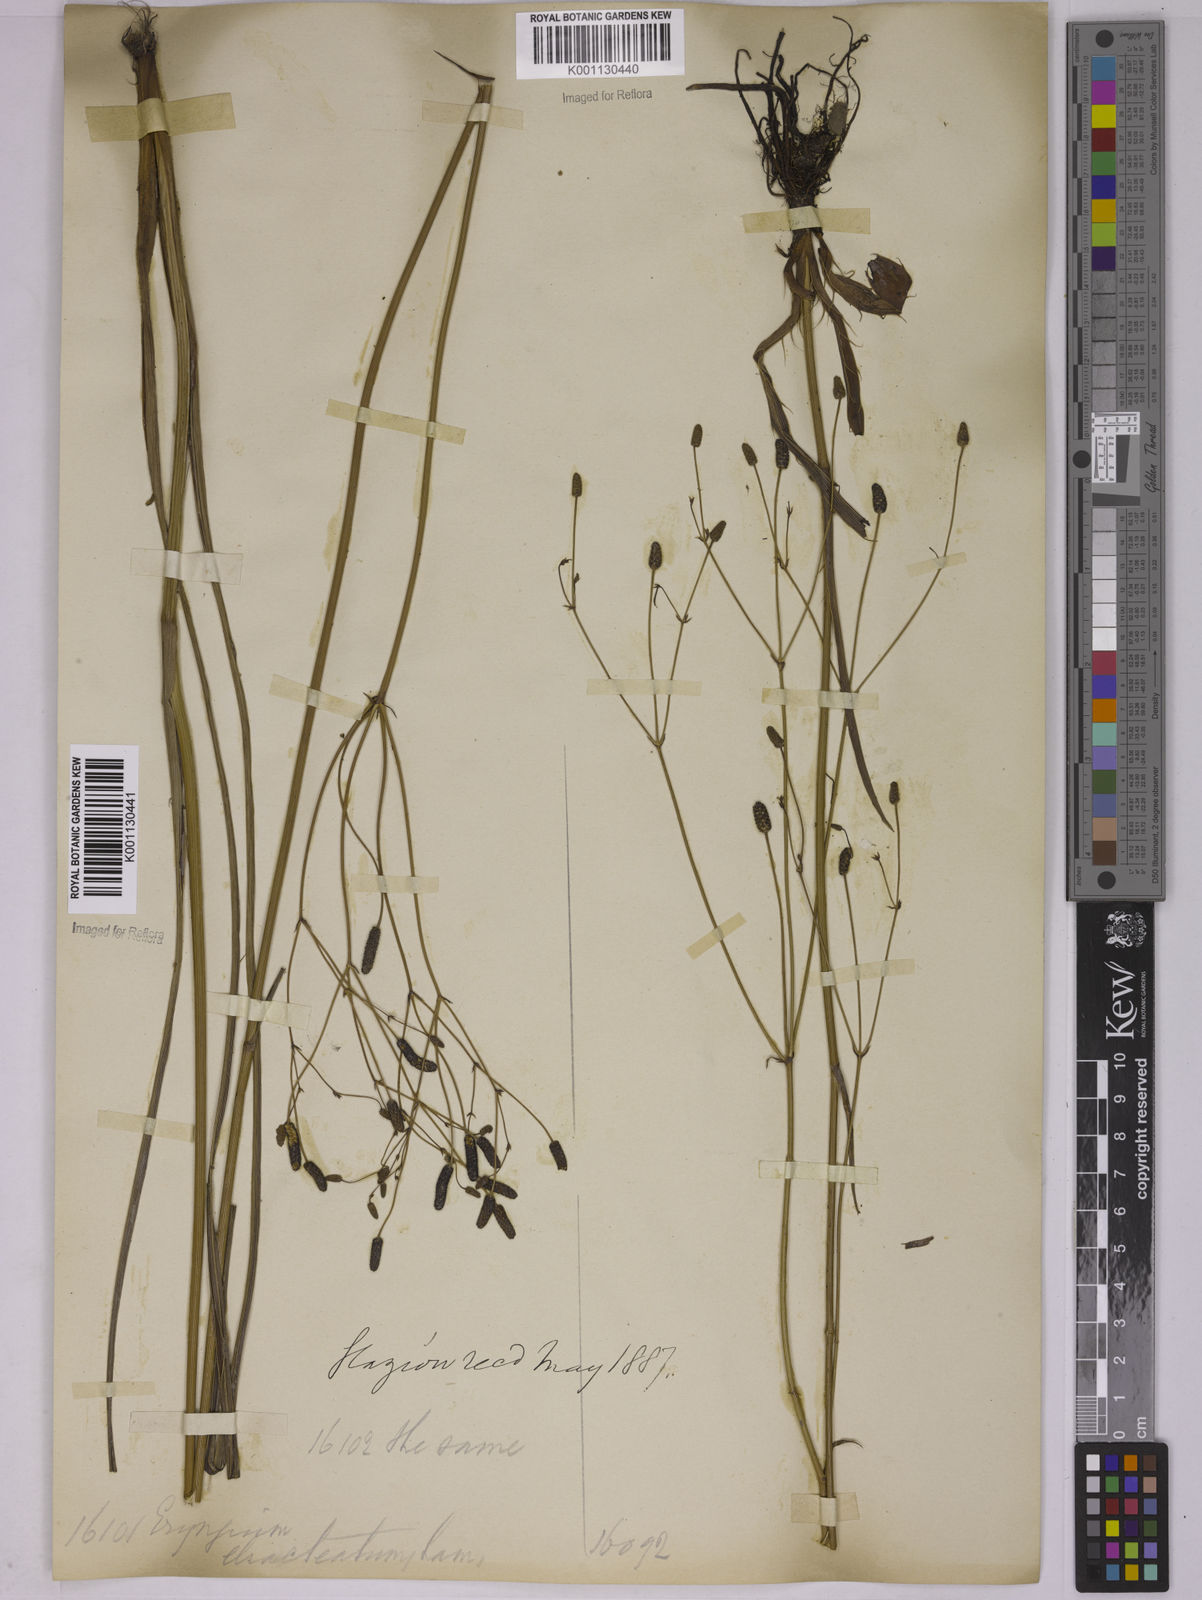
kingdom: Plantae
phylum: Tracheophyta
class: Magnoliopsida
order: Apiales
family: Apiaceae
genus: Eryngium
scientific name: Eryngium ebracteatum
